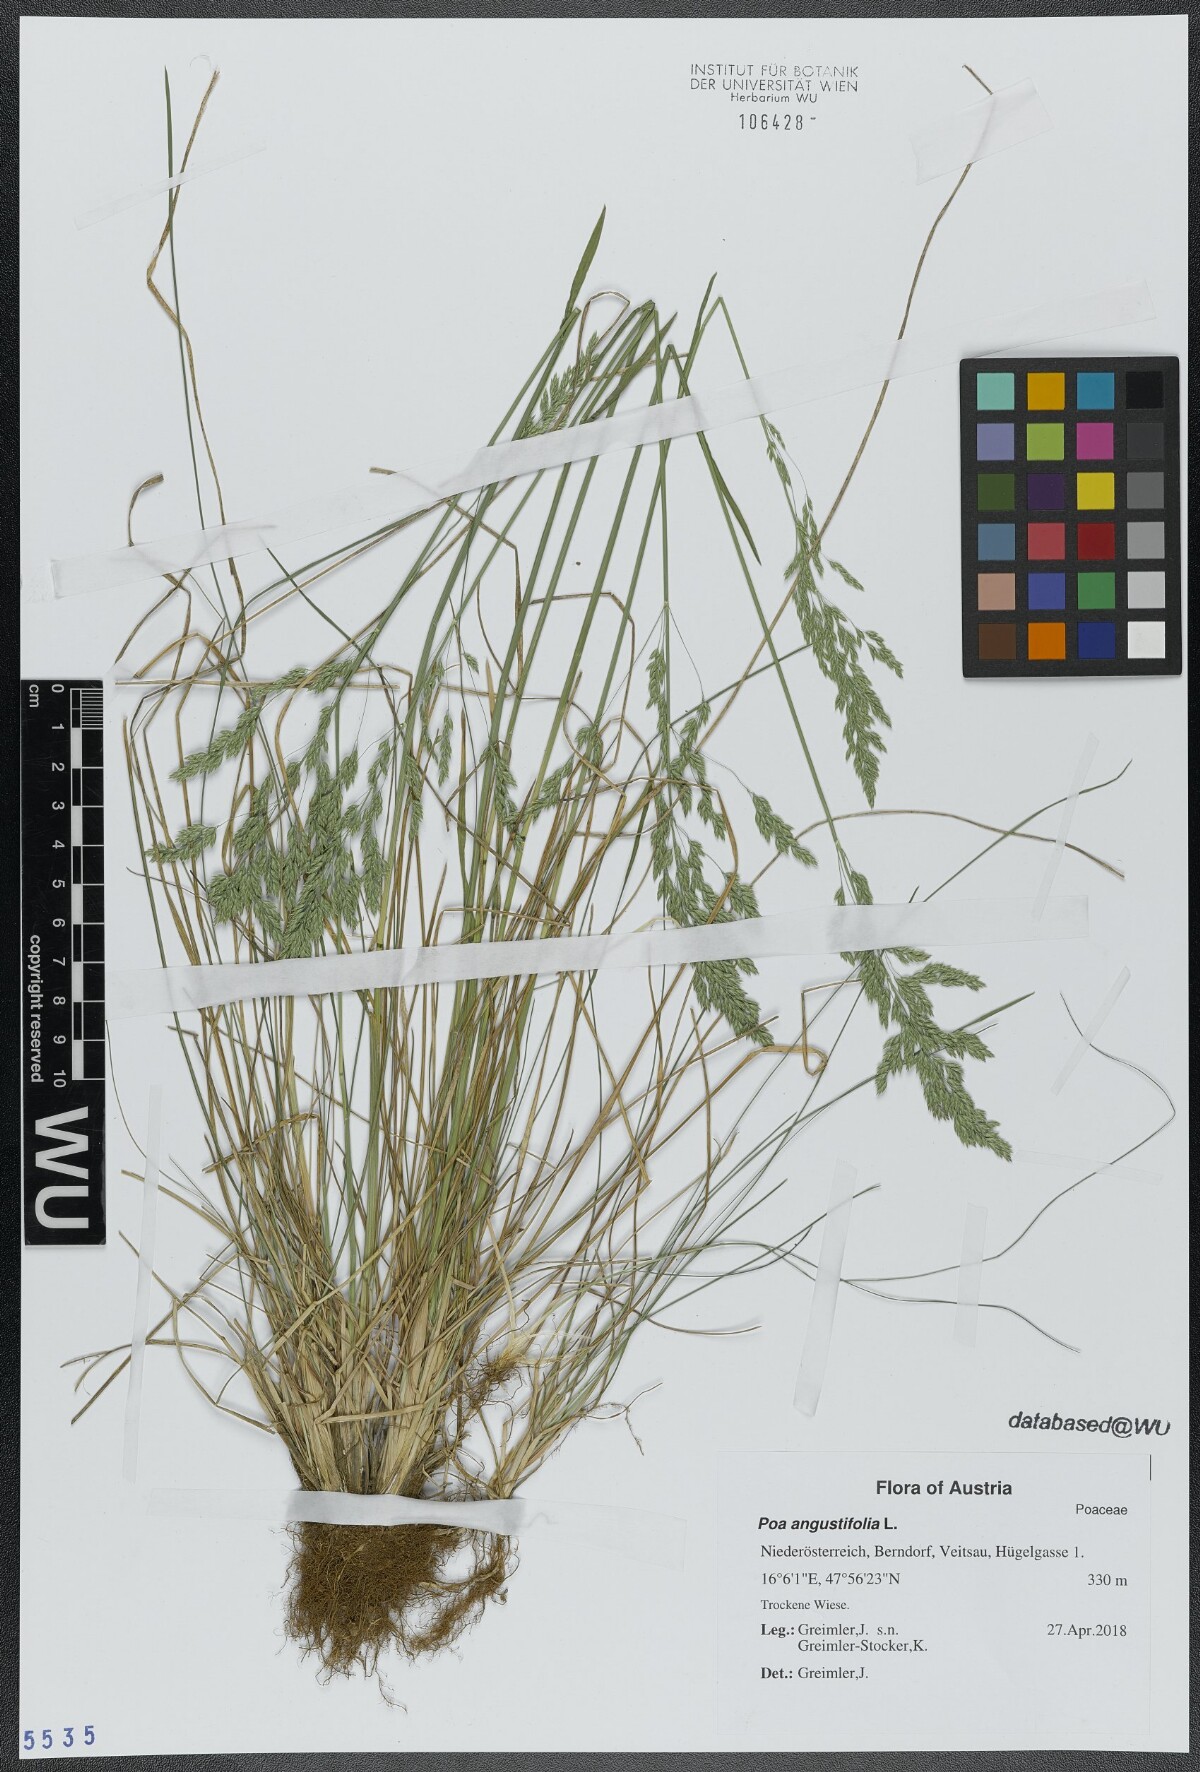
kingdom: Plantae
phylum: Tracheophyta
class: Liliopsida
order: Poales
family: Poaceae
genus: Poa
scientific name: Poa angustifolia
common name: Narrow-leaved meadow-grass
